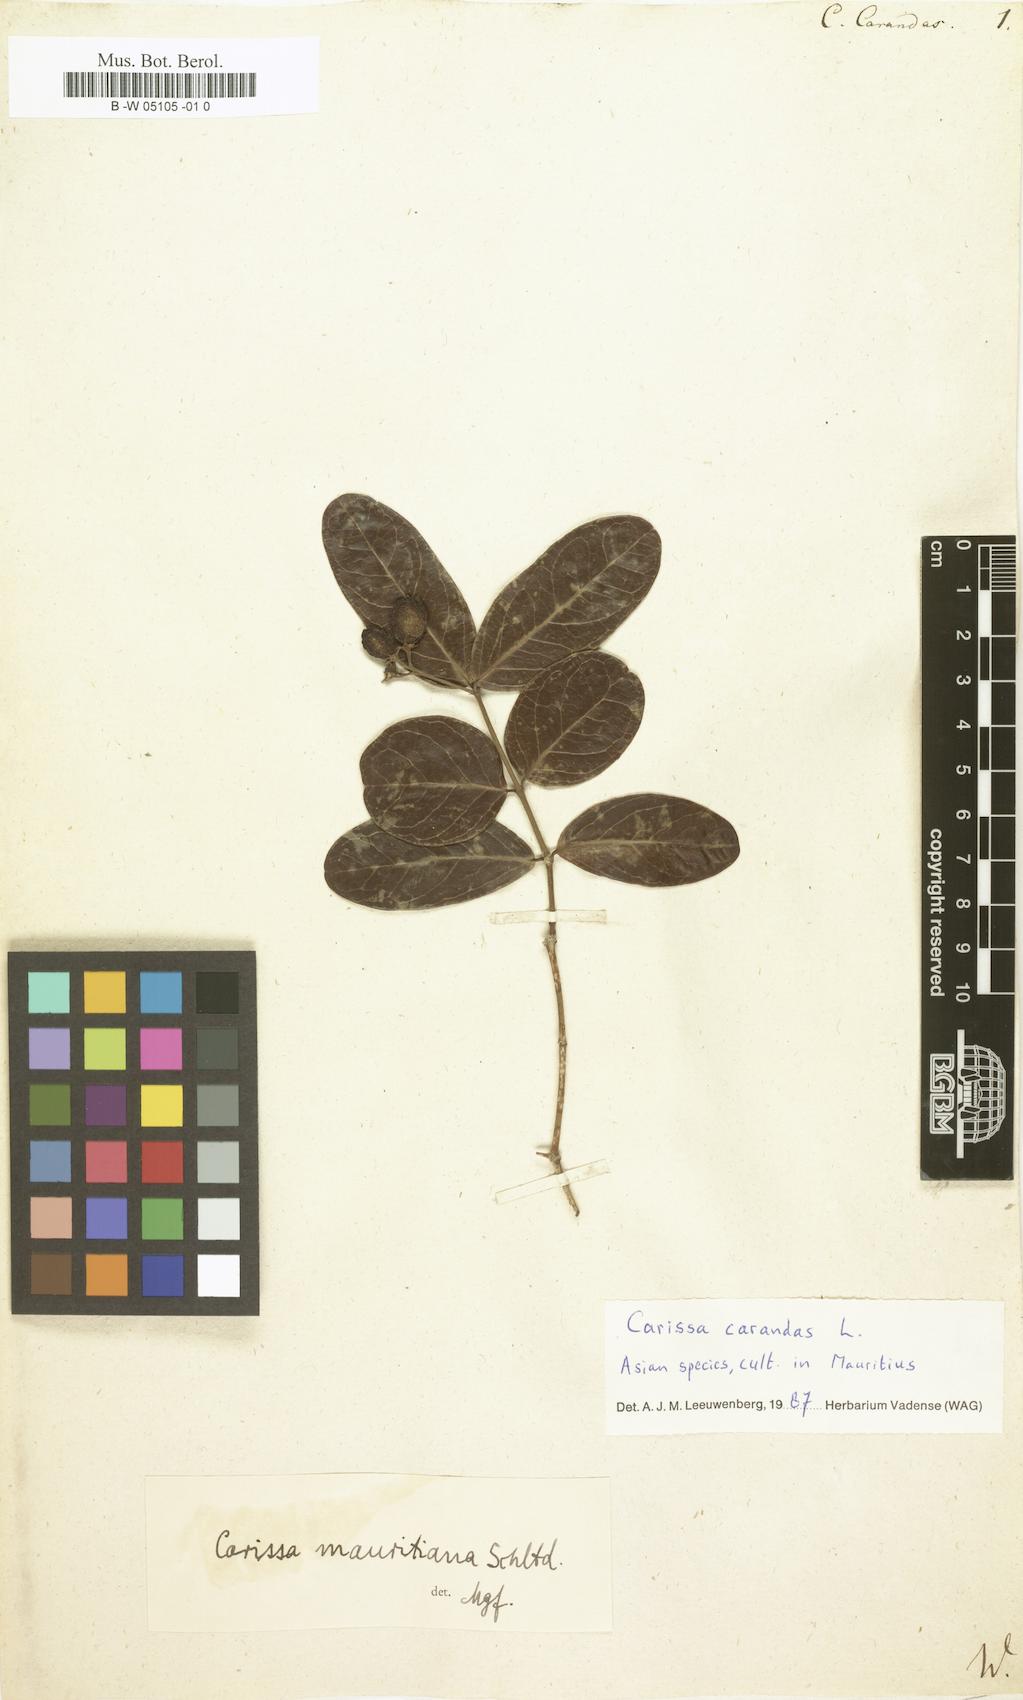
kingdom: Plantae
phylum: Tracheophyta
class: Magnoliopsida
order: Gentianales
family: Apocynaceae
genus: Carissa
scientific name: Carissa carandas
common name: Karanda
